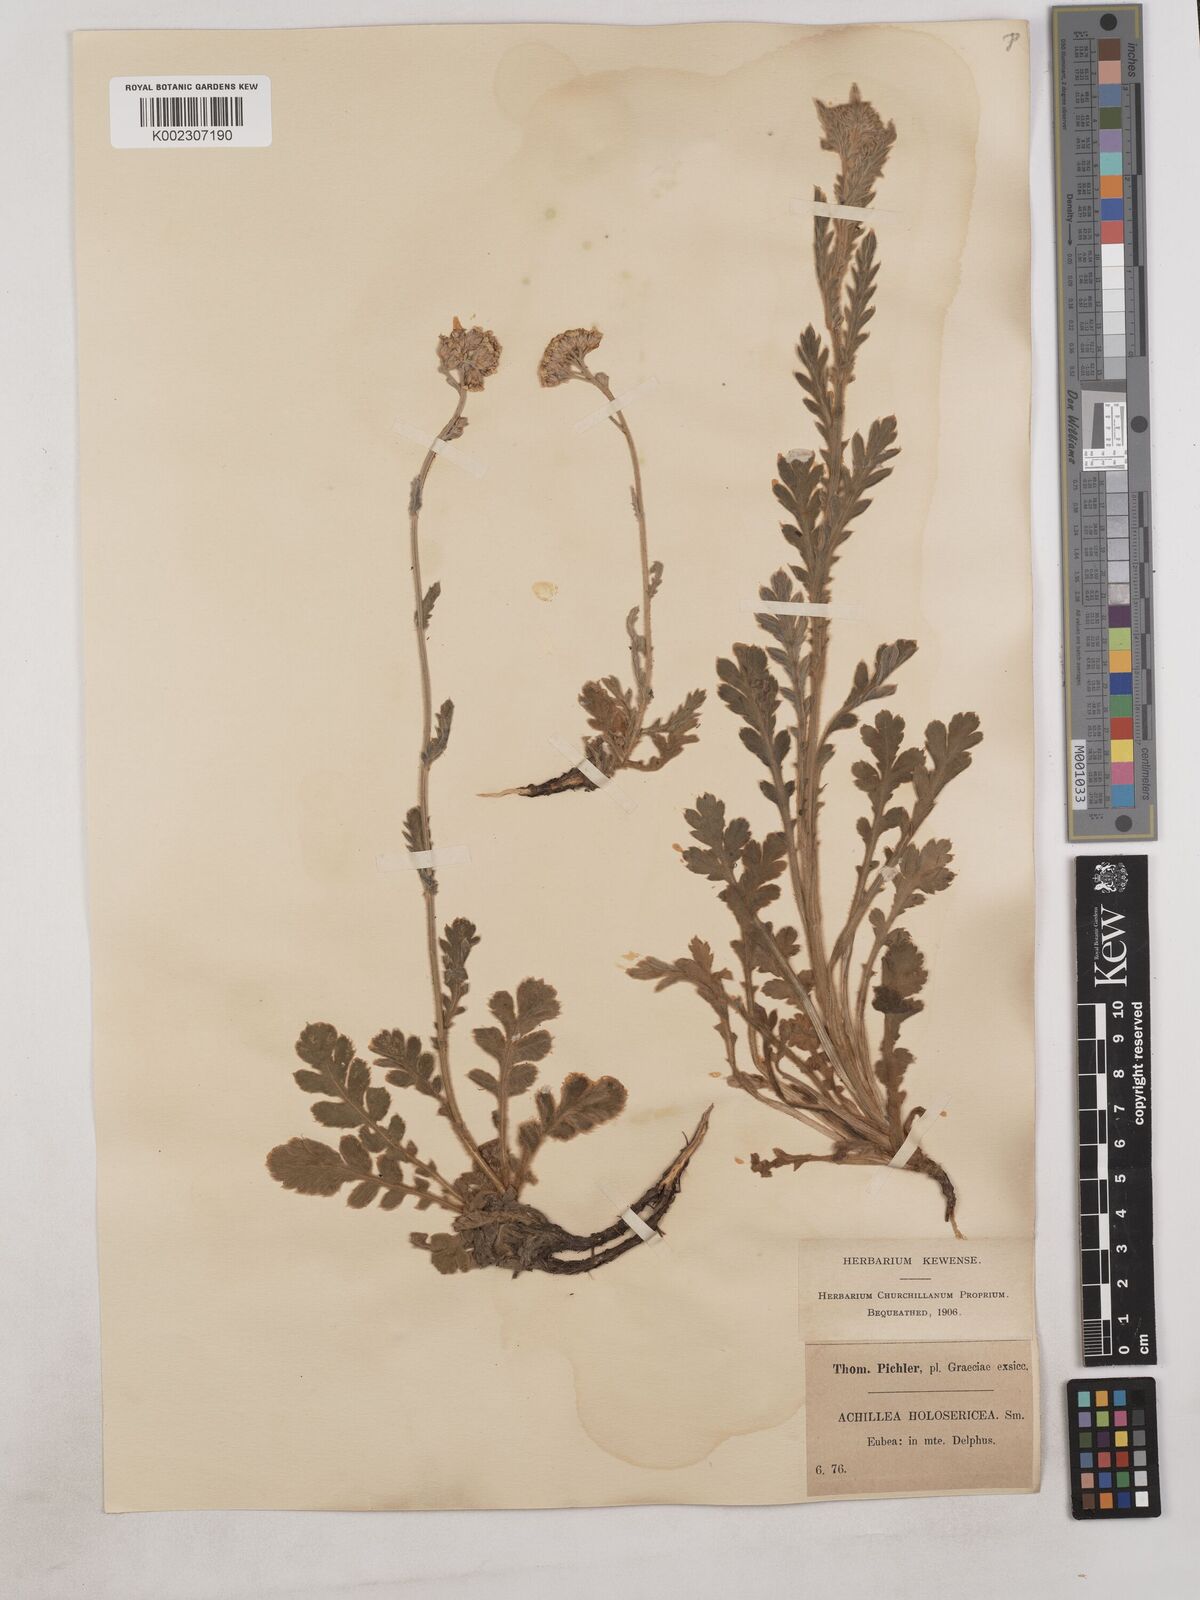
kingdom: Plantae
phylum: Tracheophyta
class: Magnoliopsida
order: Asterales
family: Asteraceae
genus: Achillea
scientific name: Achillea holosericea
